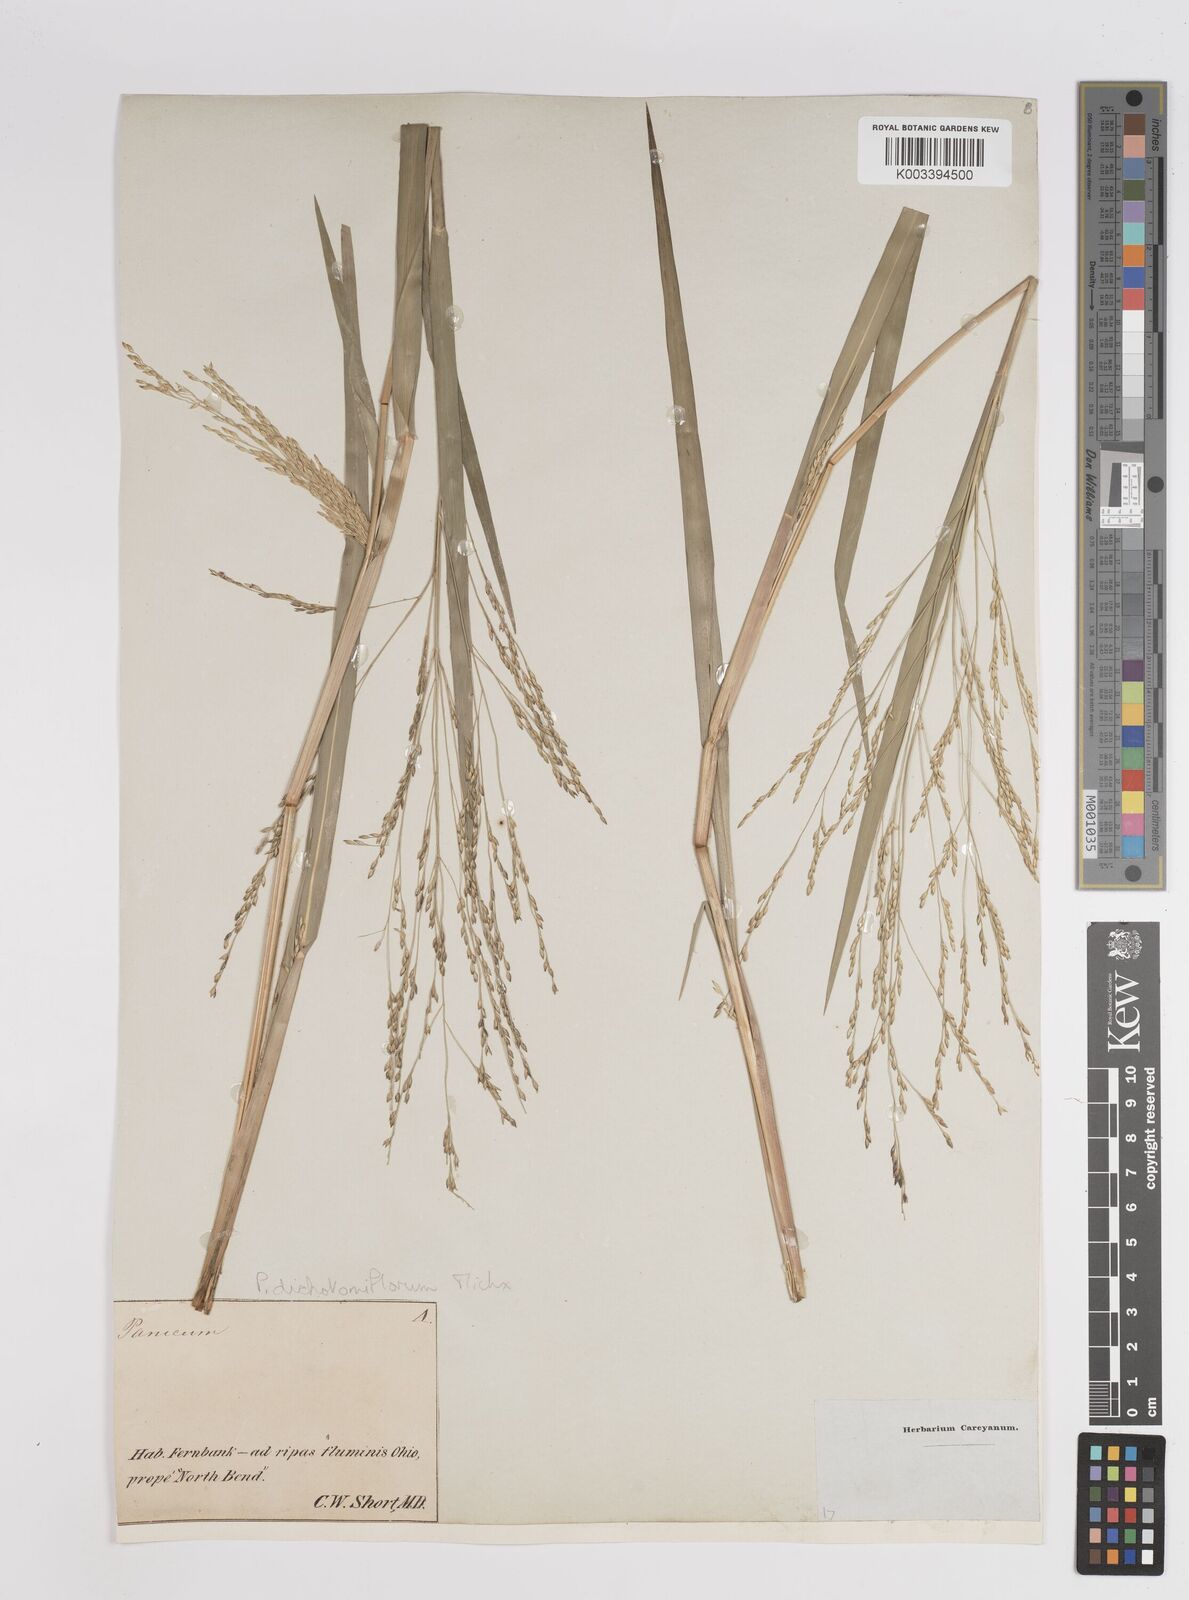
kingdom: Plantae
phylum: Tracheophyta
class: Liliopsida
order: Poales
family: Poaceae
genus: Panicum
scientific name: Panicum dichotomiflorum
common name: Autumn millet
